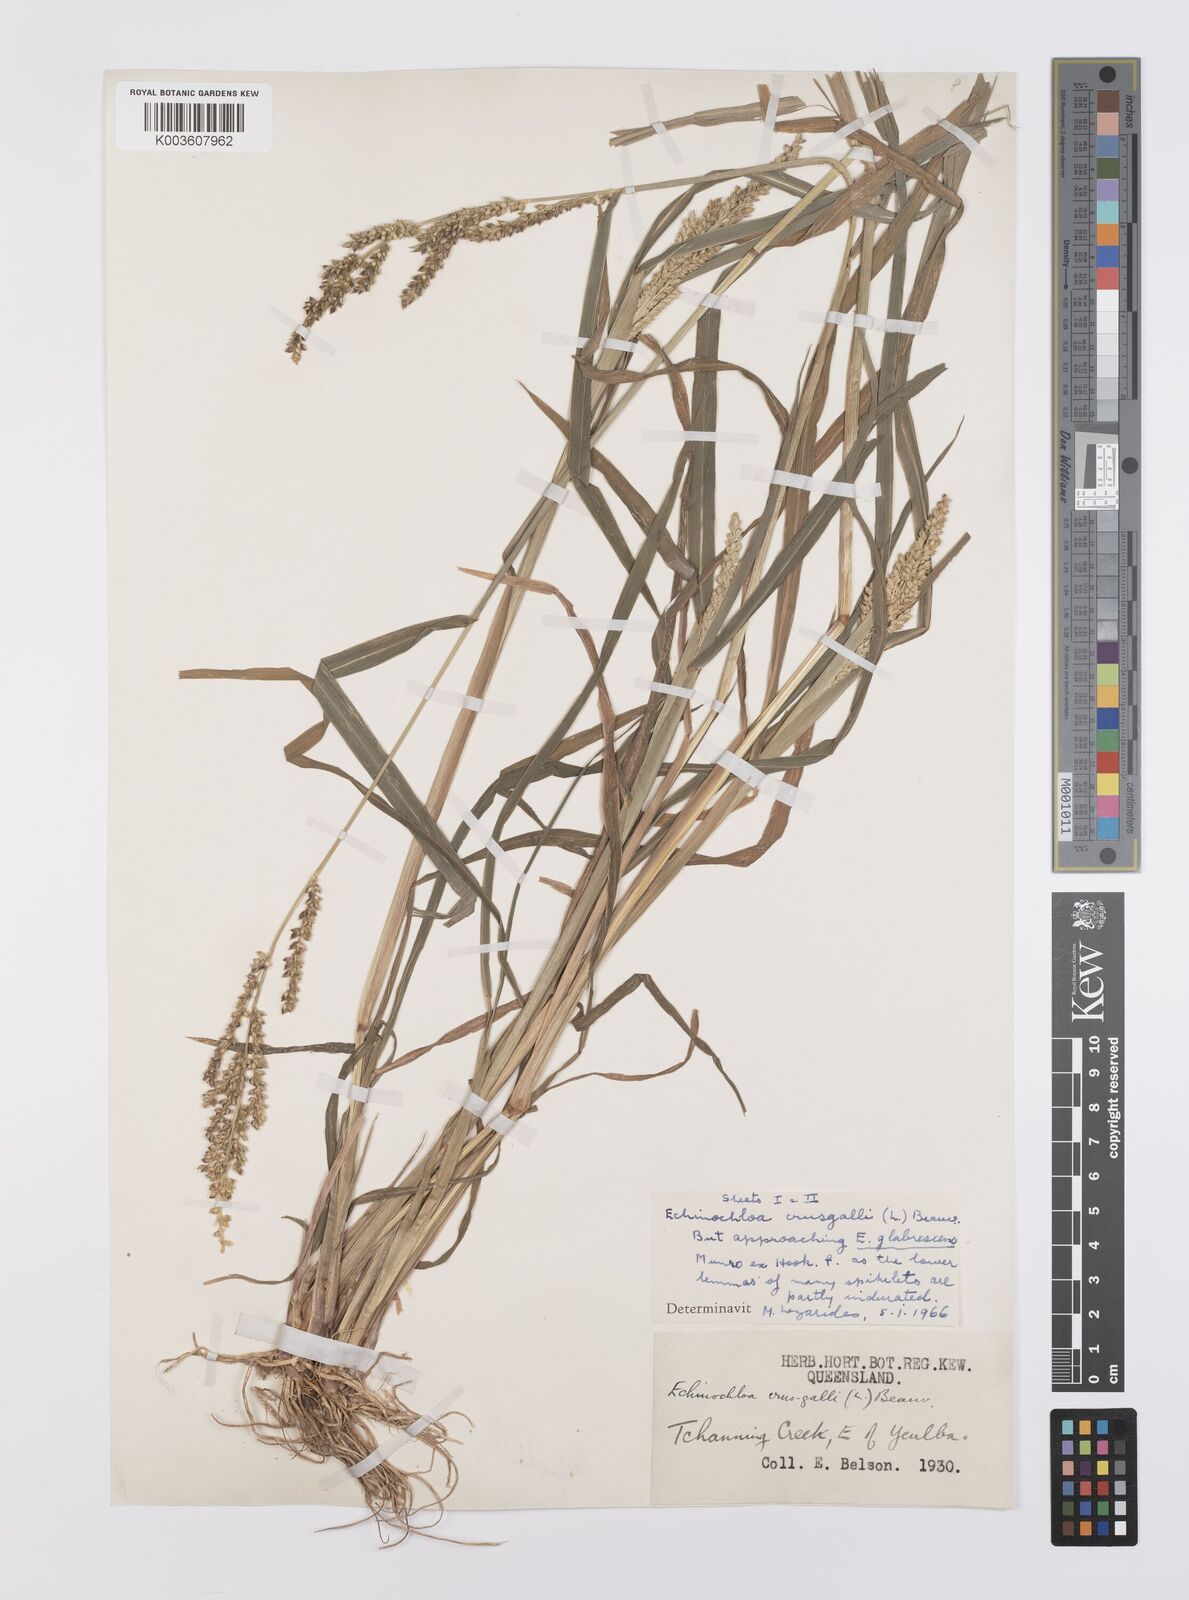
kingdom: Plantae
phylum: Tracheophyta
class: Liliopsida
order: Poales
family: Poaceae
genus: Echinochloa
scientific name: Echinochloa crus-galli
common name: Cockspur
